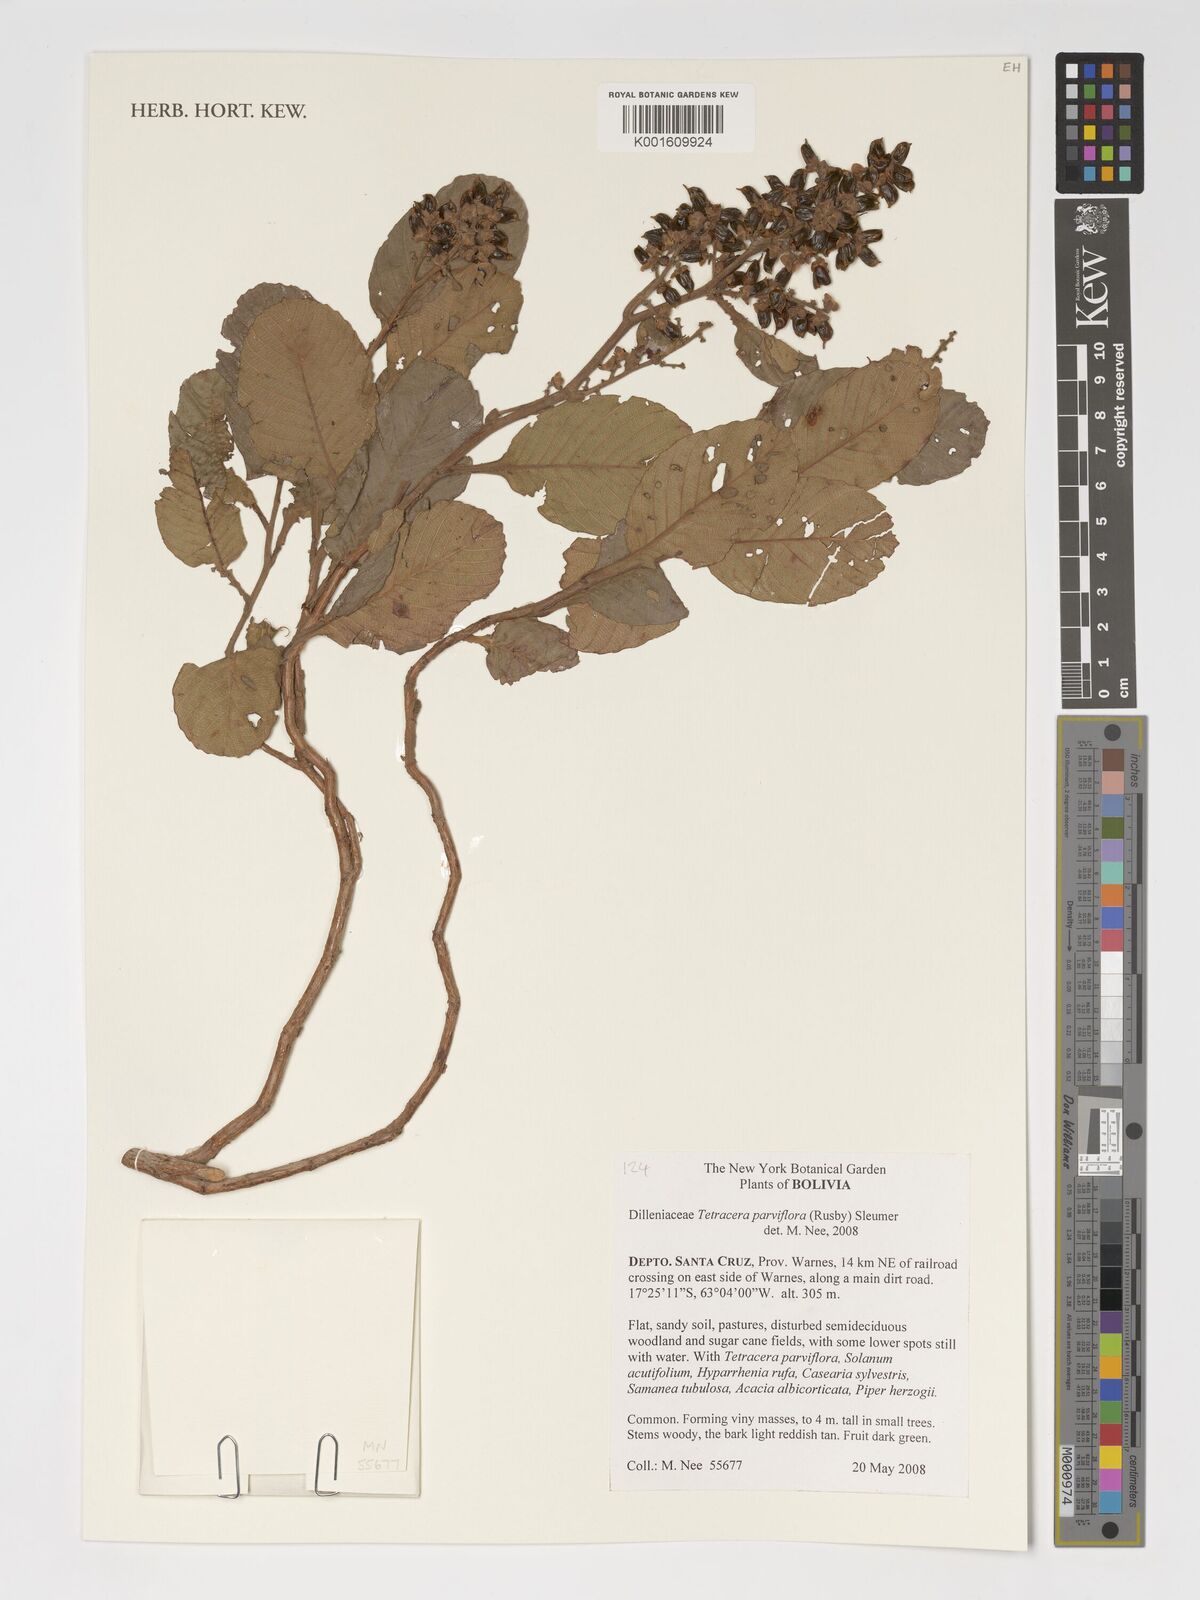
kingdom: Plantae
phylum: Tracheophyta
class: Magnoliopsida
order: Dilleniales
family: Dilleniaceae
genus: Tetracera
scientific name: Tetracera parviflora
